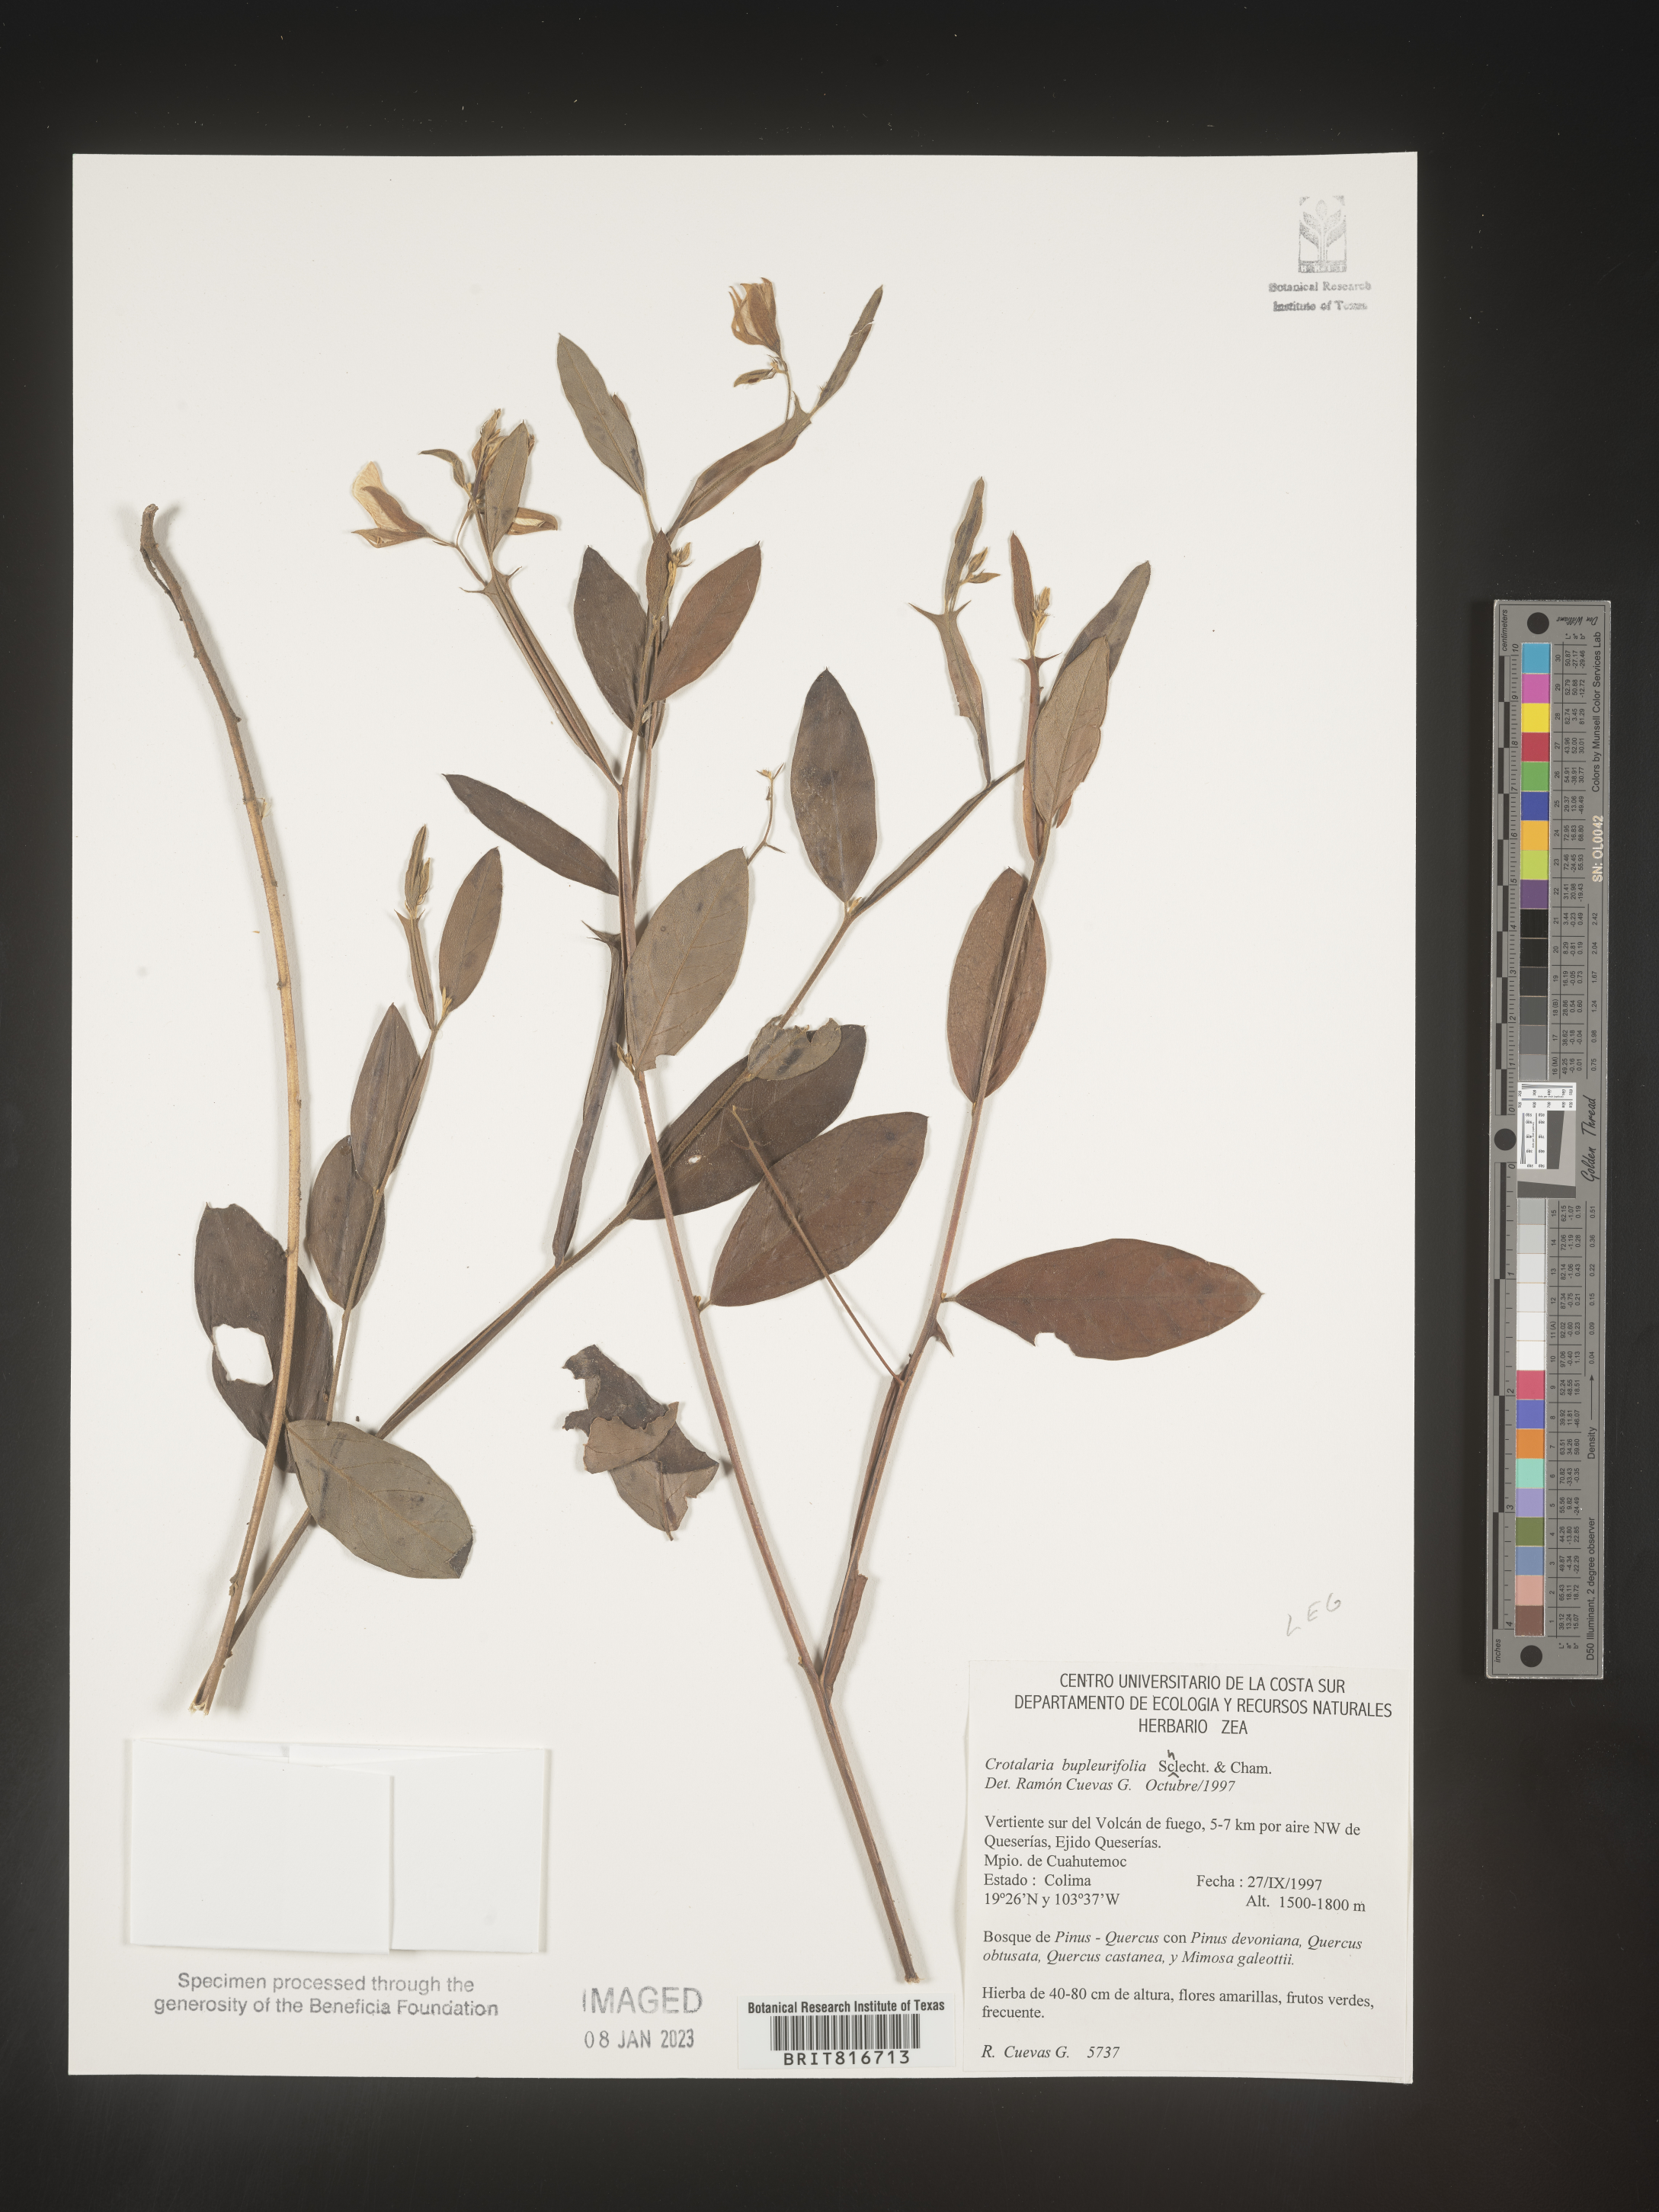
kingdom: Plantae
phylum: Tracheophyta
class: Magnoliopsida
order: Fabales
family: Fabaceae
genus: Crotalaria
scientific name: Crotalaria
